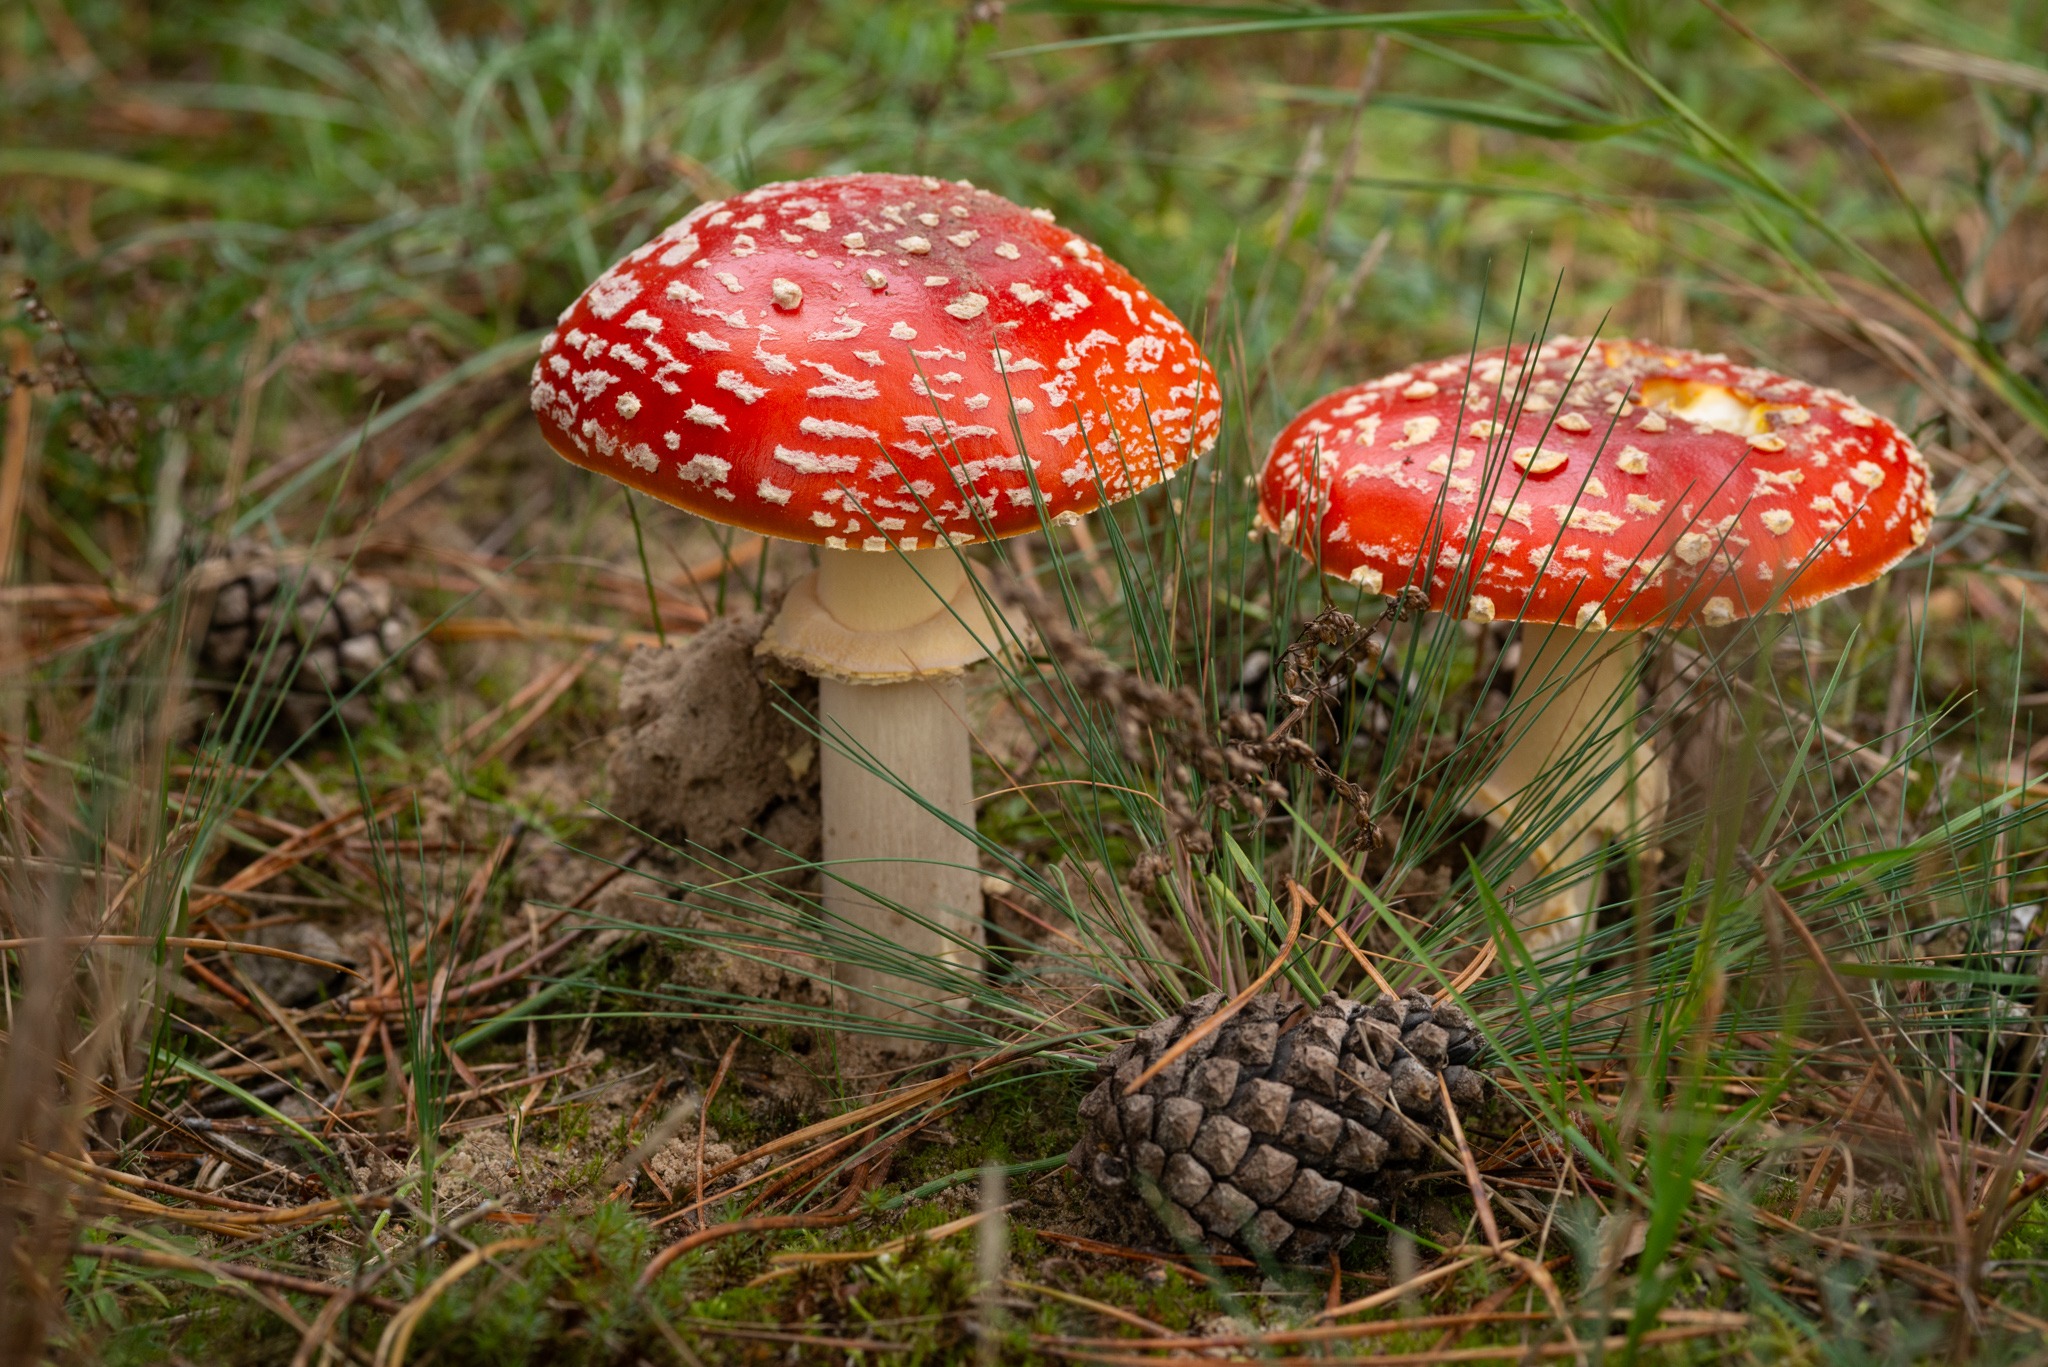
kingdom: Fungi
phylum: Basidiomycota
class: Agaricomycetes
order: Agaricales
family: Amanitaceae
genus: Amanita
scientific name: Amanita muscaria
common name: Rød fluesvamp
